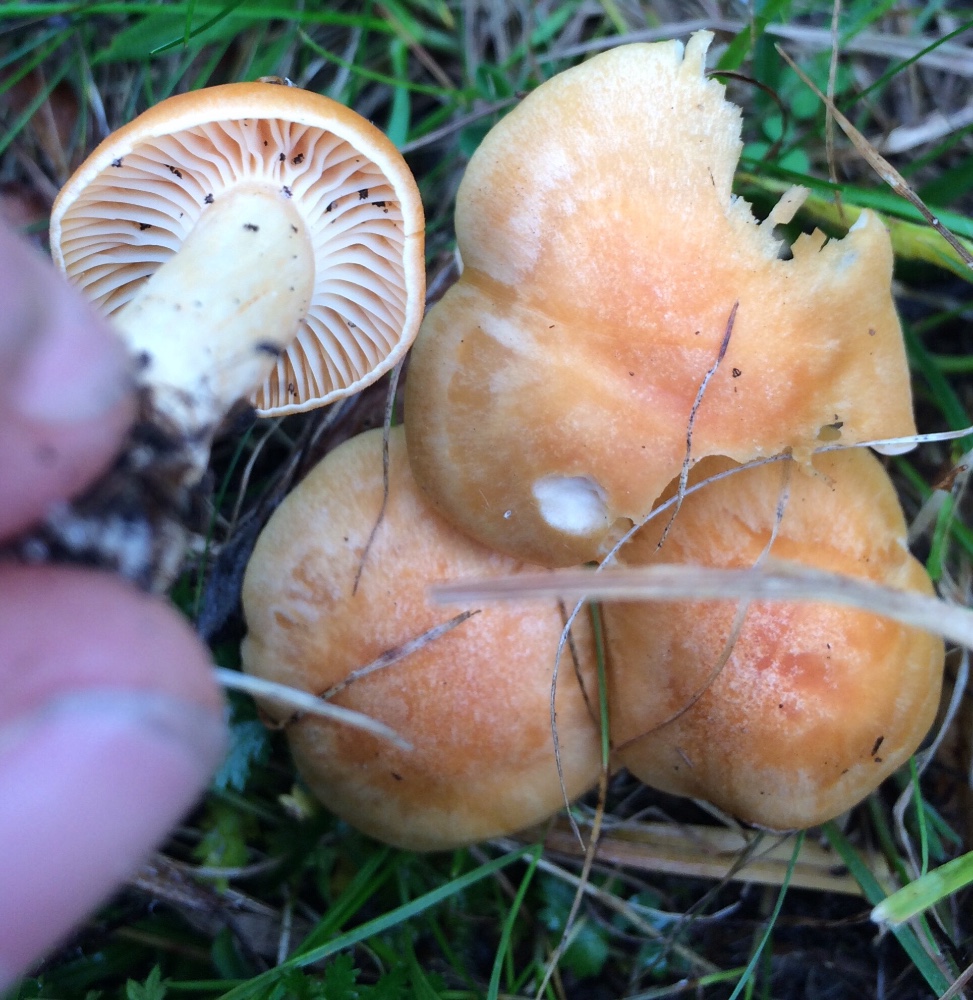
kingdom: Fungi
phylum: Basidiomycota
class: Agaricomycetes
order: Agaricales
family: Hygrophoraceae
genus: Cuphophyllus
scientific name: Cuphophyllus pratensis
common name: eng-vokshat
